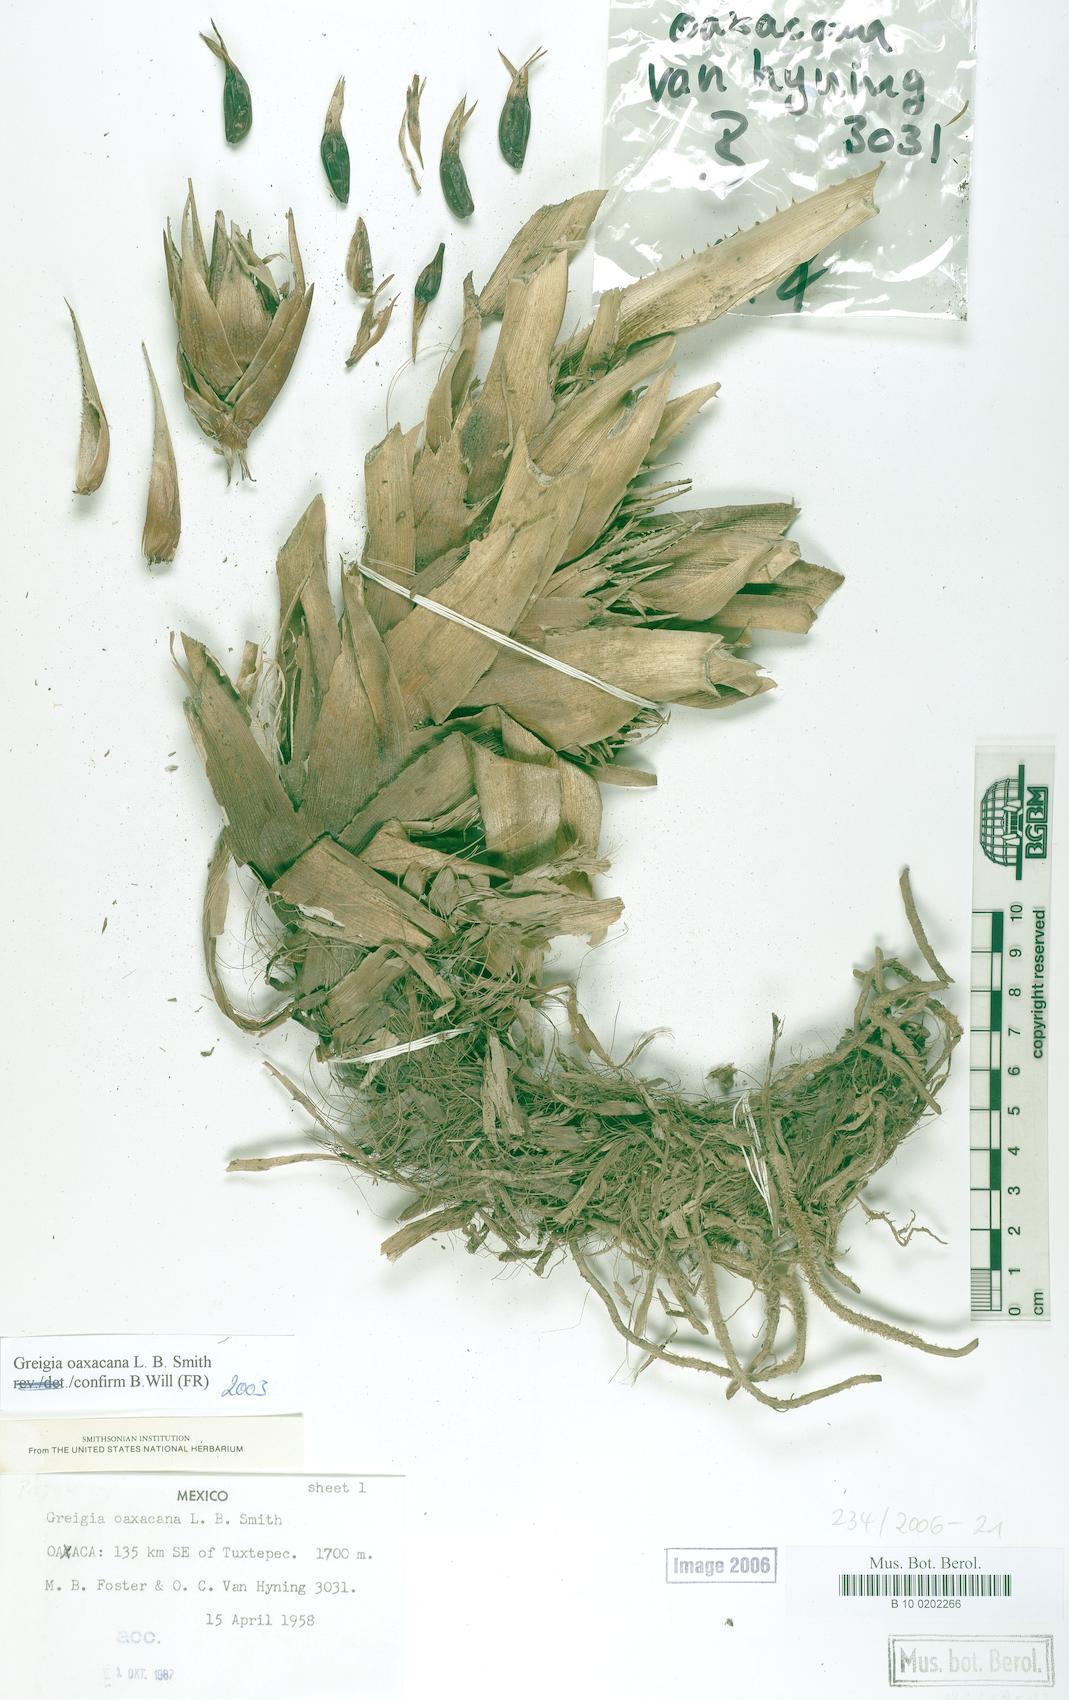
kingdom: Plantae
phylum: Tracheophyta
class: Liliopsida
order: Poales
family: Bromeliaceae
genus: Greigia
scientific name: Greigia oaxacana
